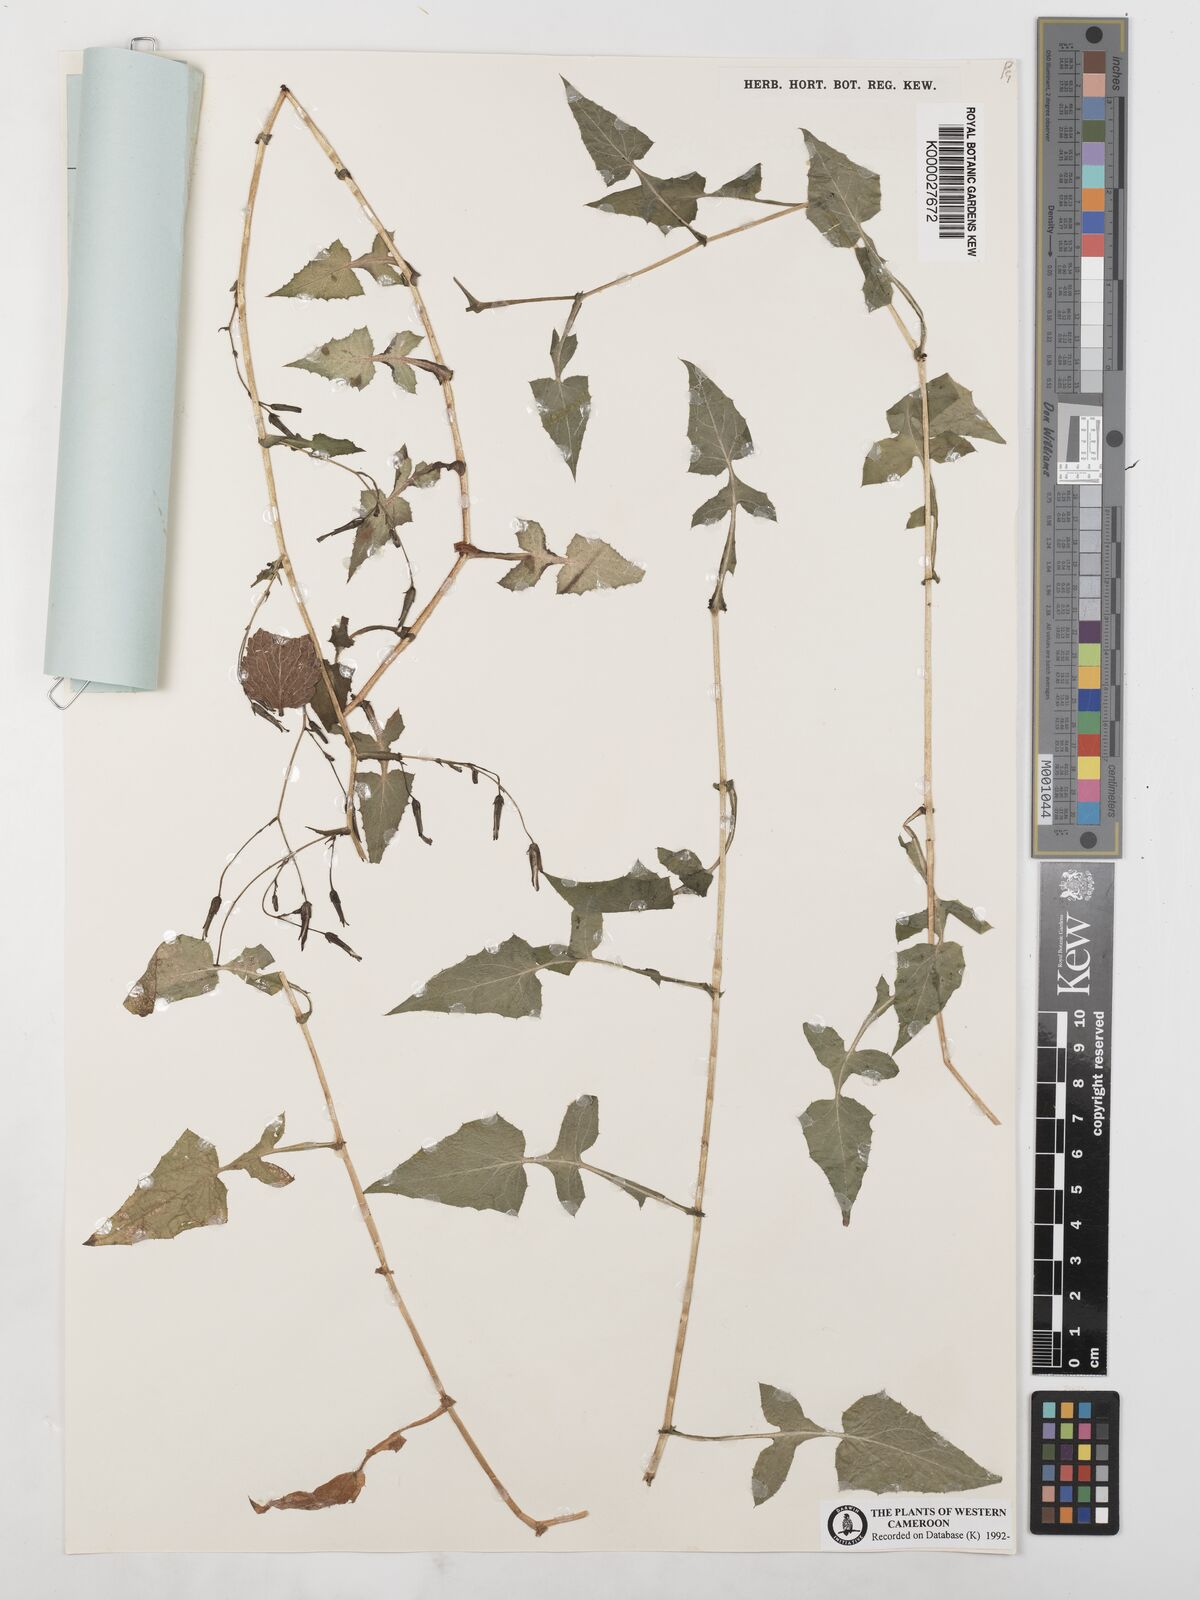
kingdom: Plantae
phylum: Tracheophyta
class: Magnoliopsida
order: Asterales
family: Asteraceae
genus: Lactuca
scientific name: Lactuca glandulifera
